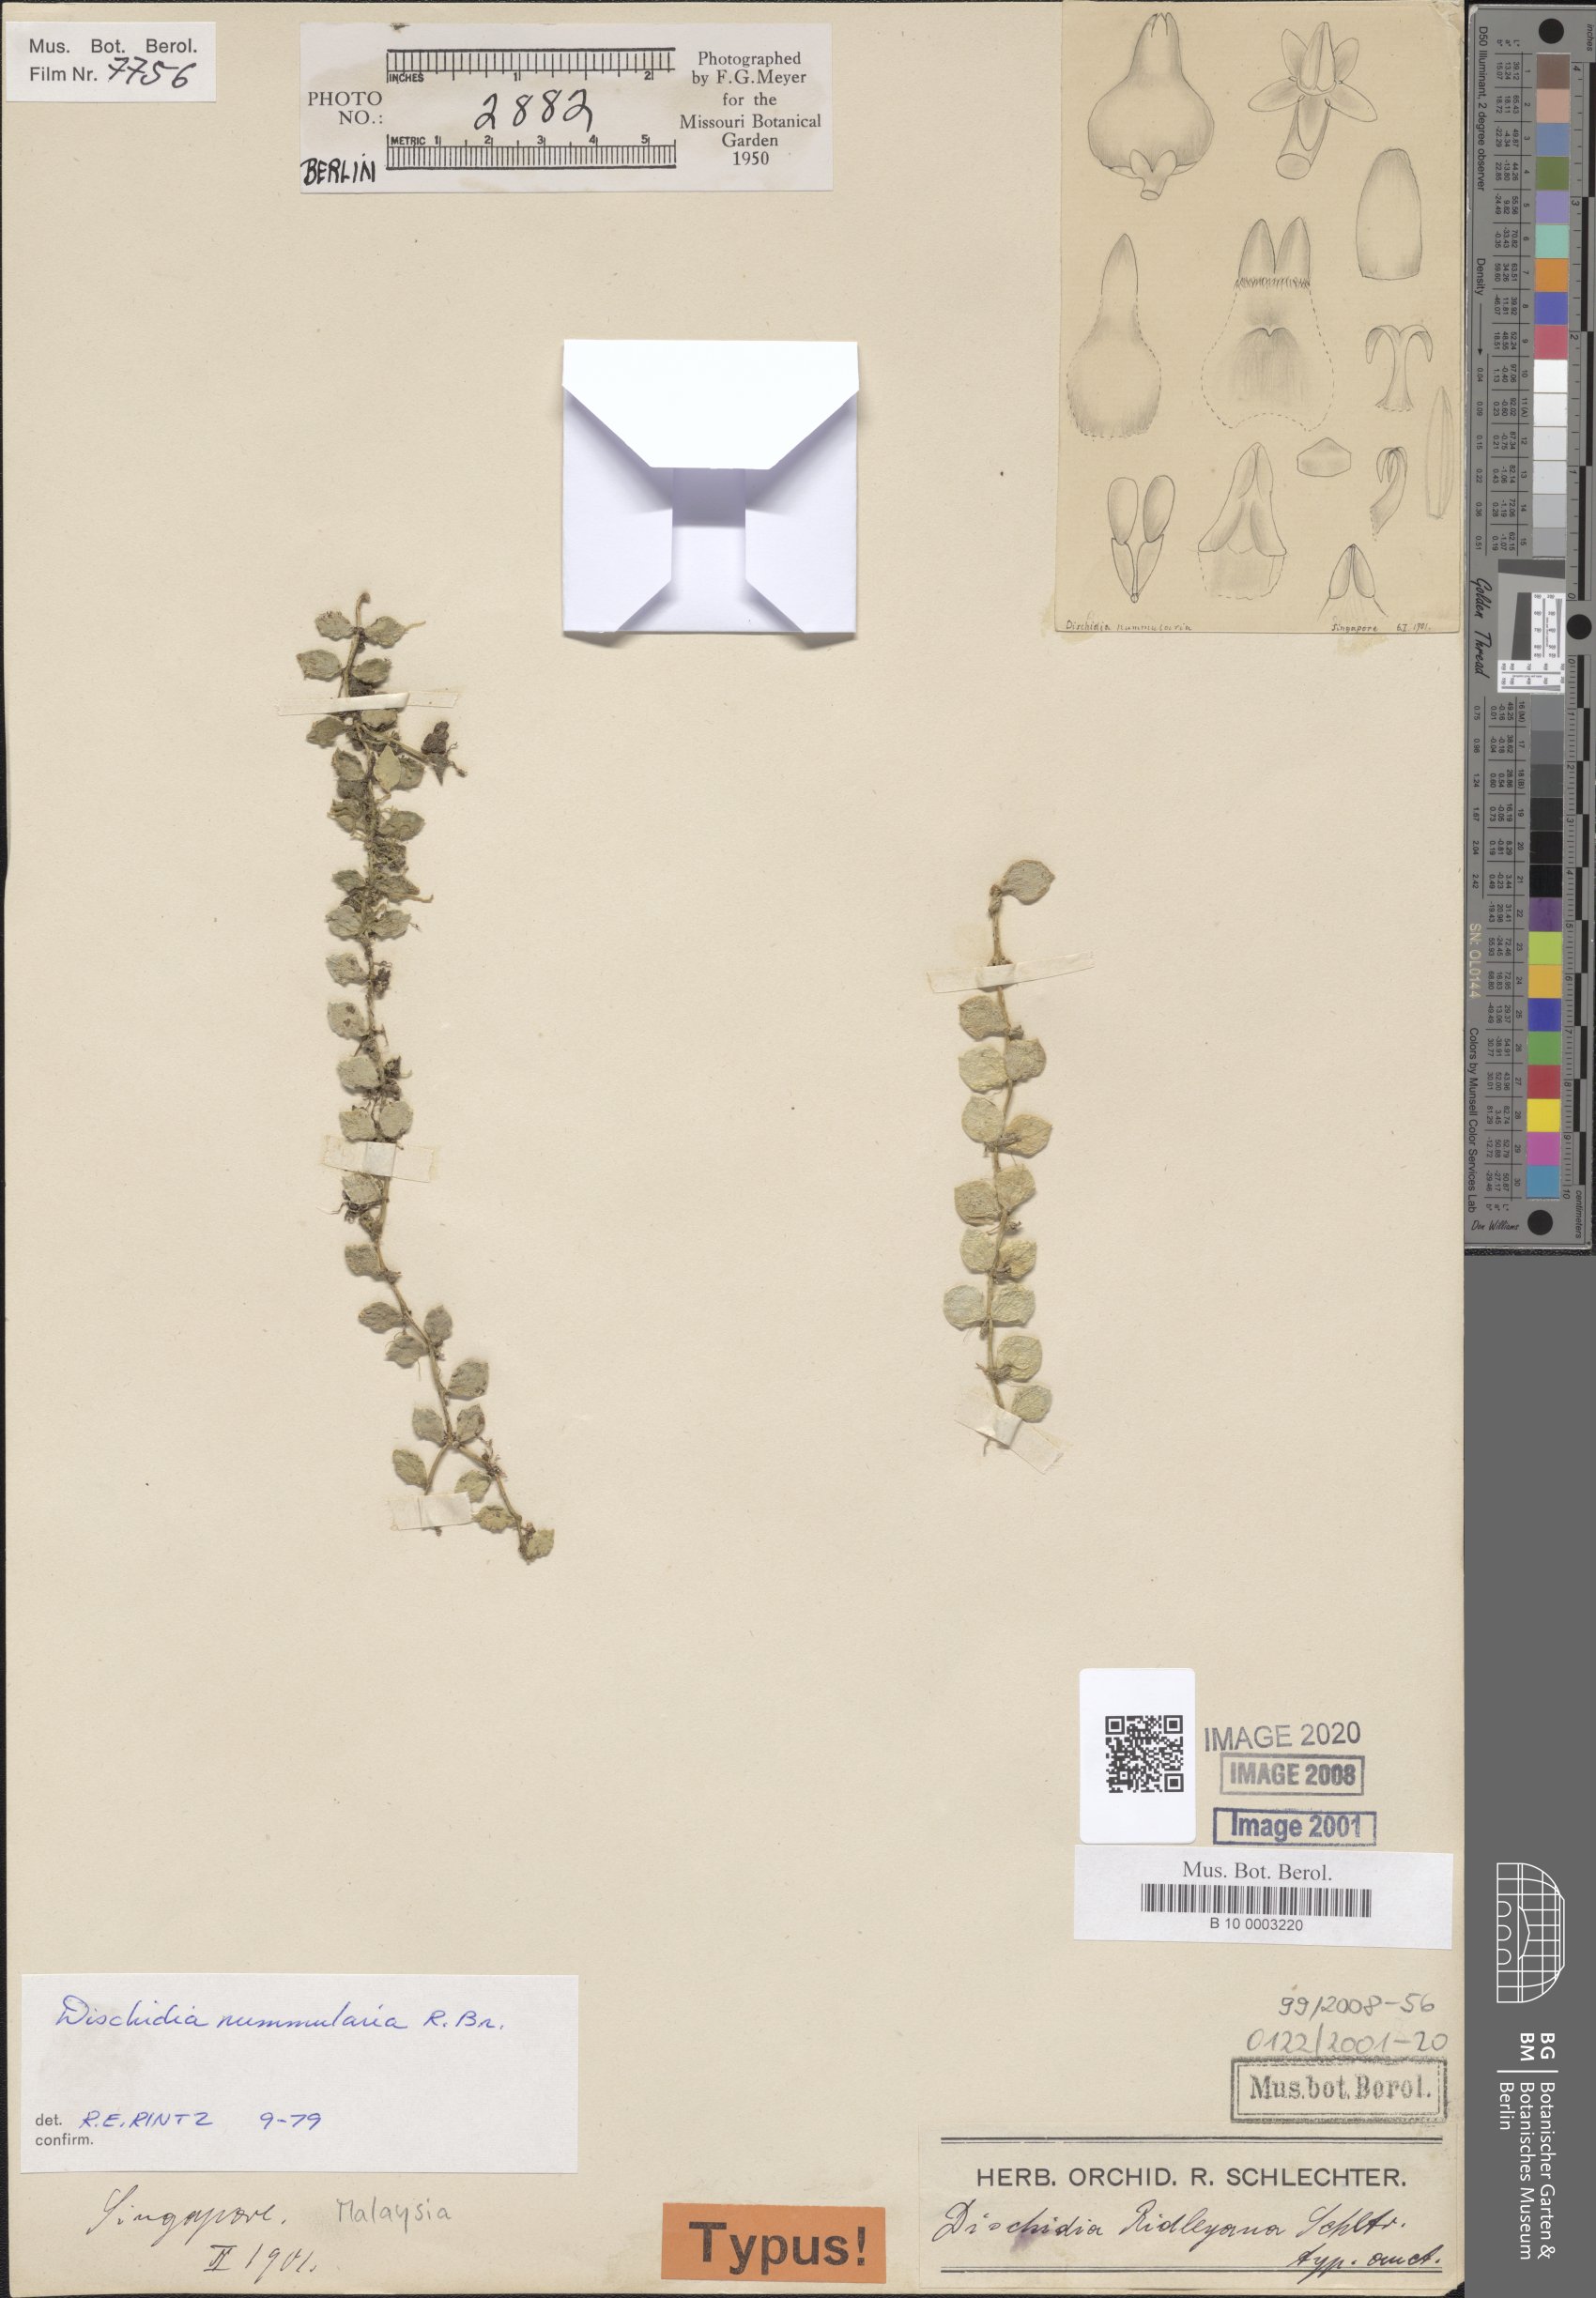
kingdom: Plantae
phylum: Tracheophyta
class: Magnoliopsida
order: Gentianales
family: Apocynaceae
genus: Dischidia
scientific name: Dischidia nummularia
